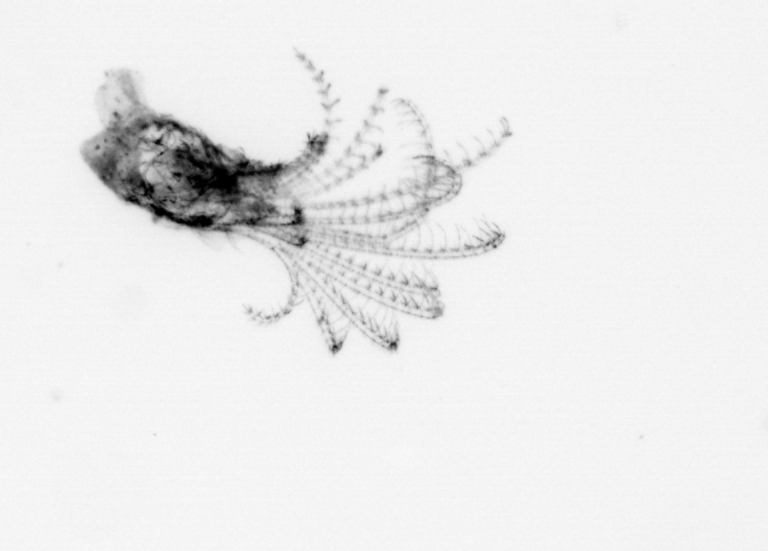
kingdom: Animalia
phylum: Arthropoda
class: Maxillopoda
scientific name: Maxillopoda
